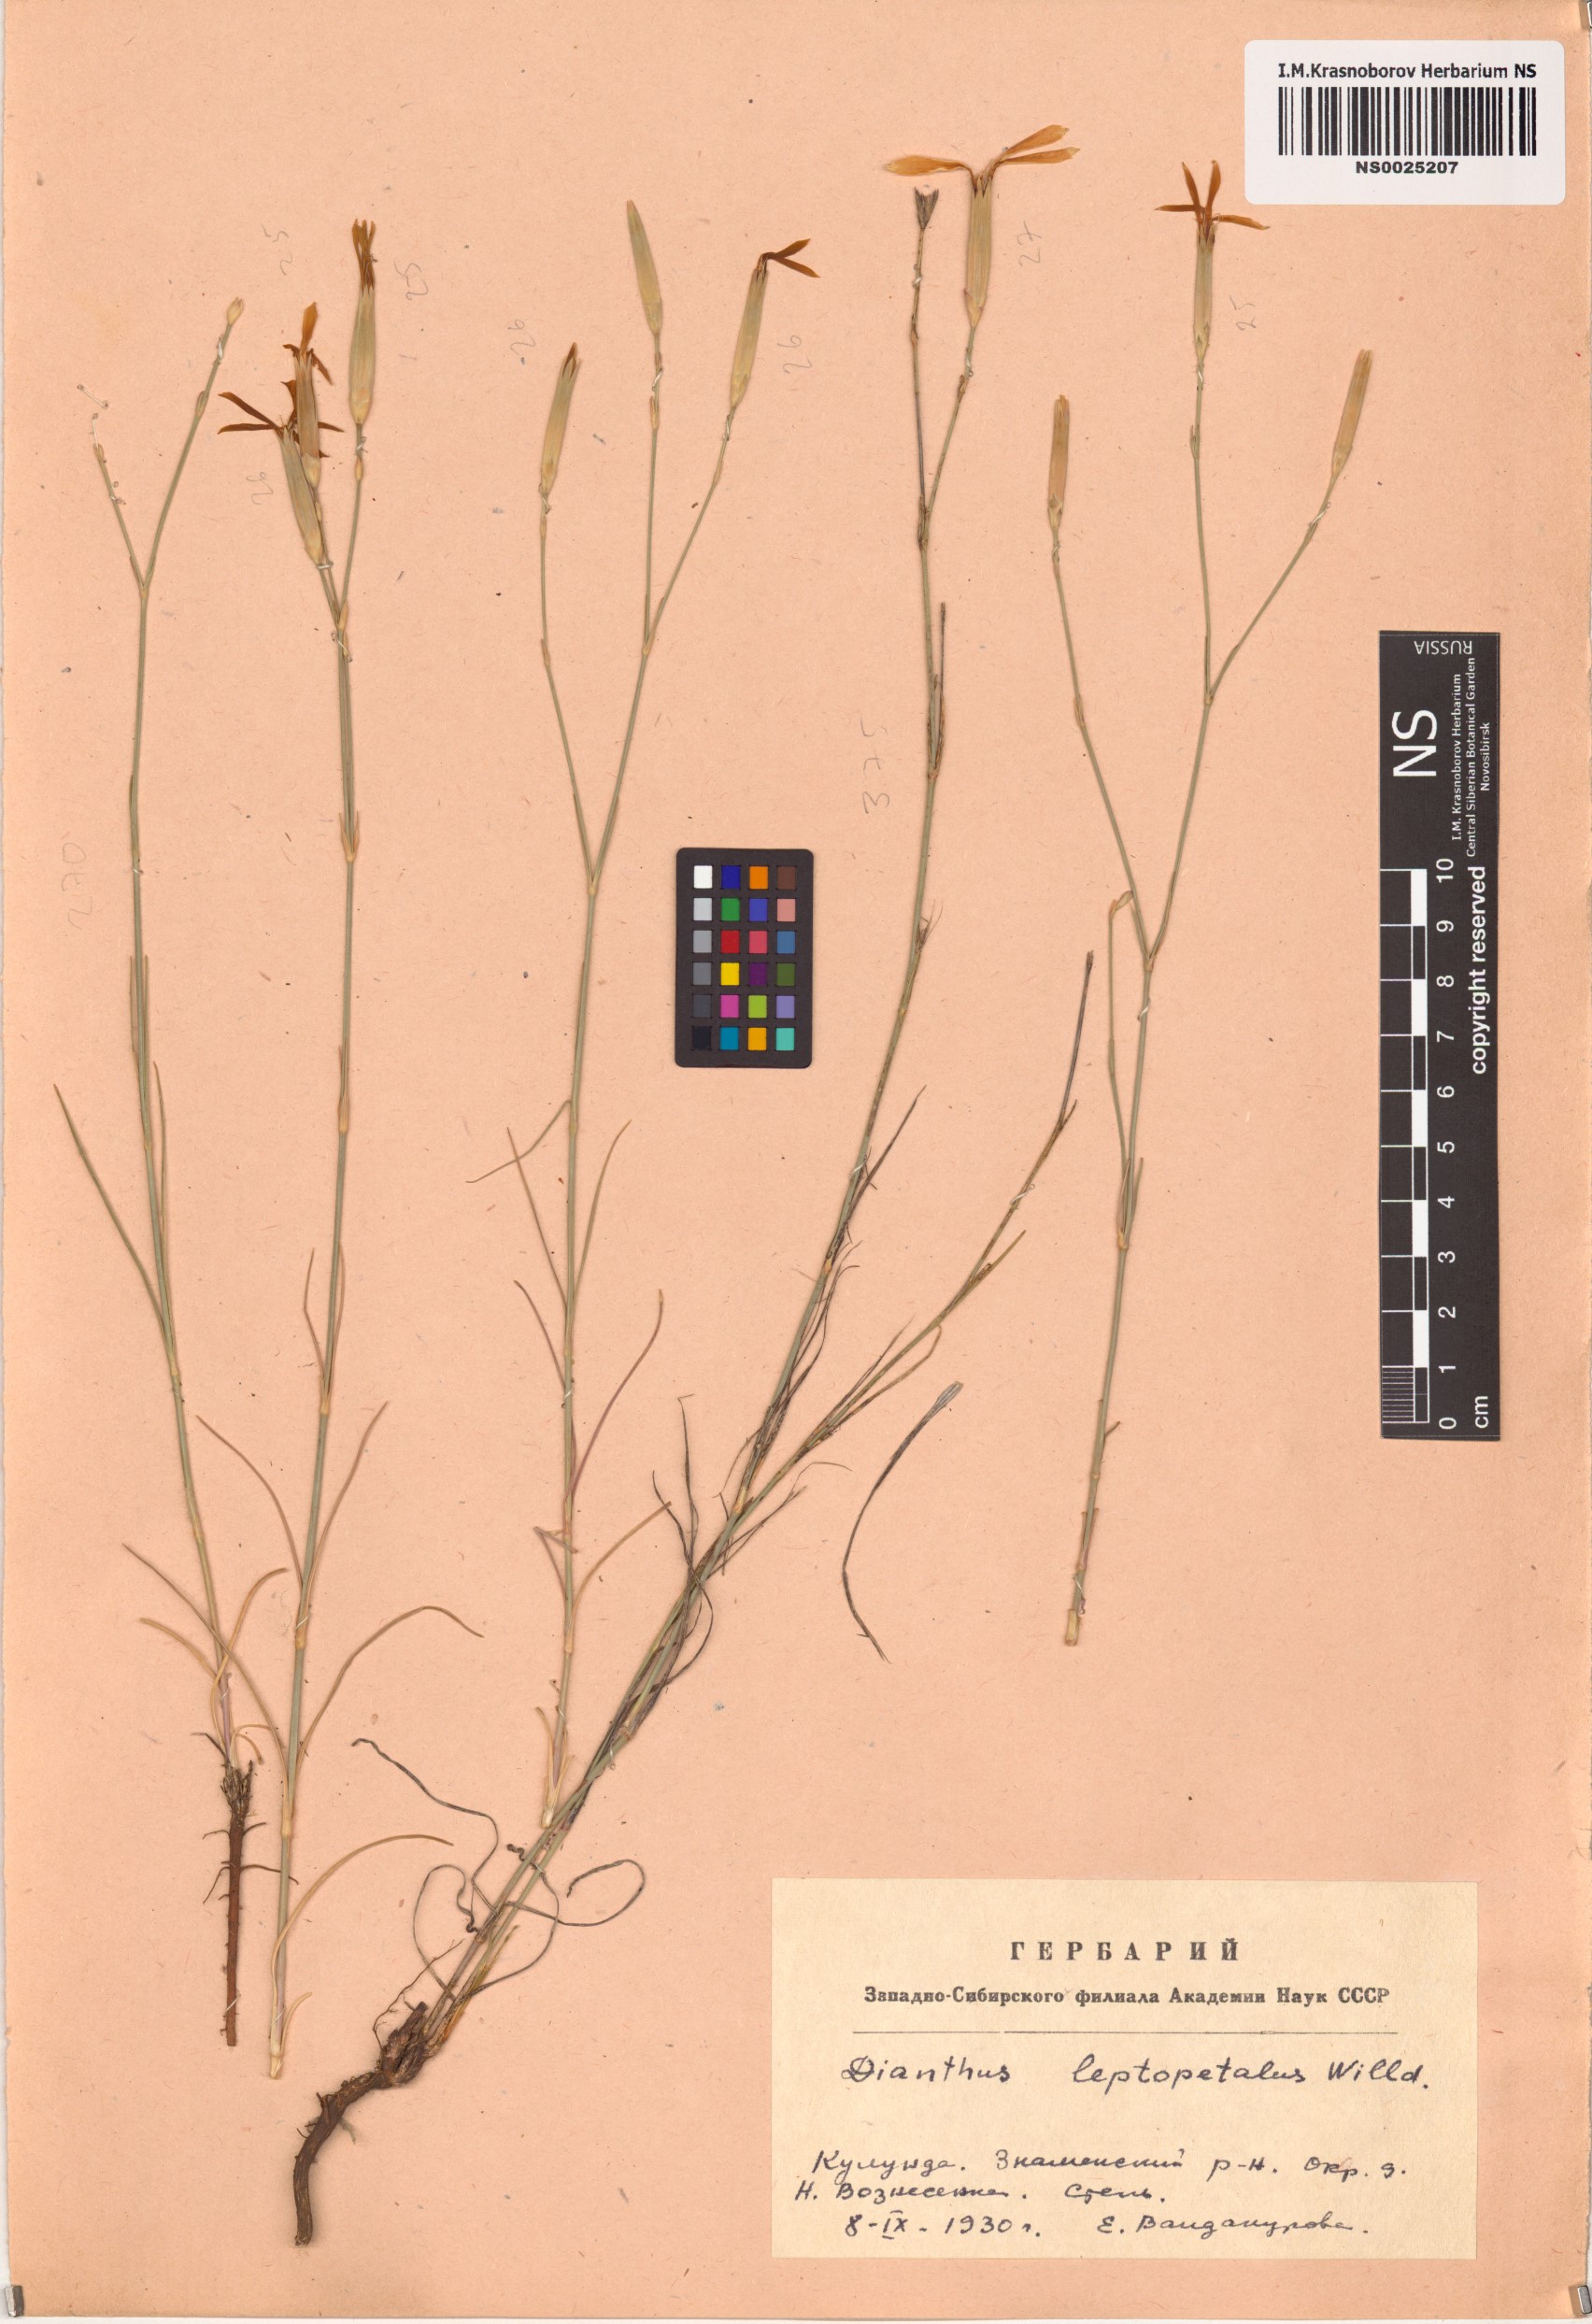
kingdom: Plantae
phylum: Tracheophyta
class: Magnoliopsida
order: Caryophyllales
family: Caryophyllaceae
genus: Dianthus
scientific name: Dianthus leptopetalus
